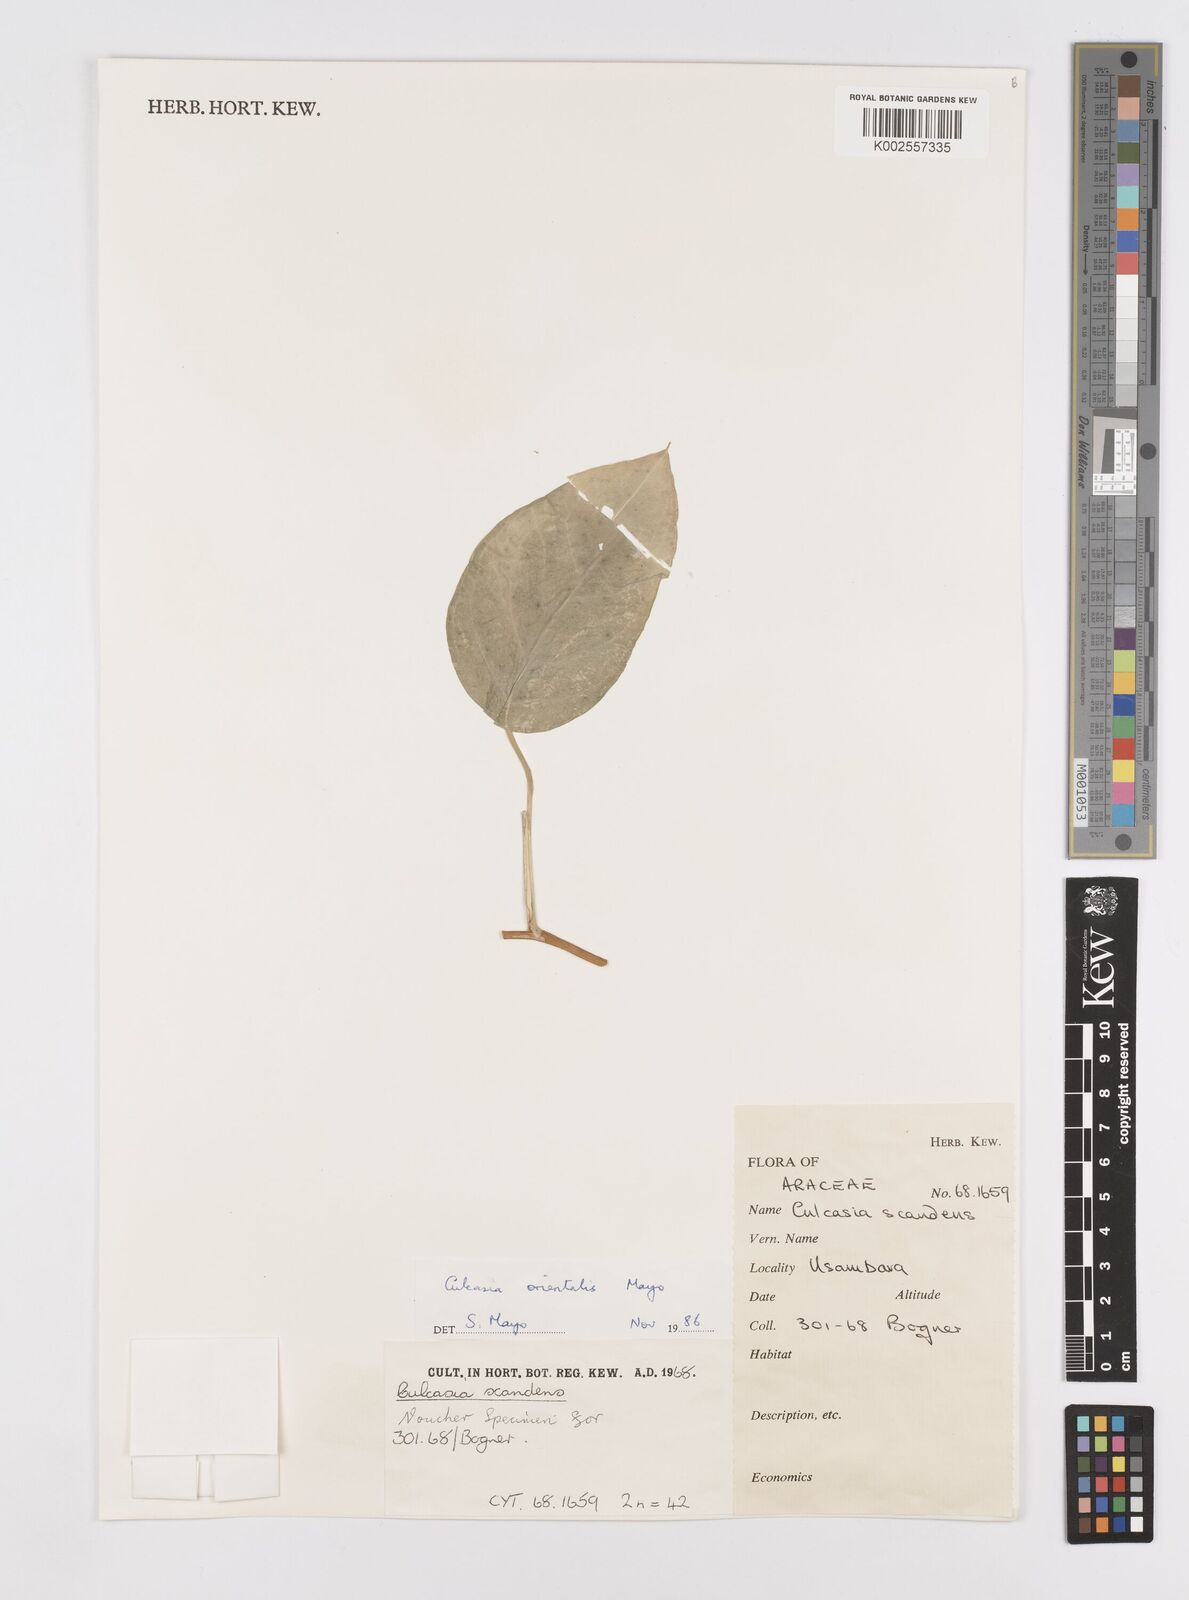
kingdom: Plantae
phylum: Tracheophyta
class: Liliopsida
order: Alismatales
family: Araceae
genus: Culcasia
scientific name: Culcasia orientalis
